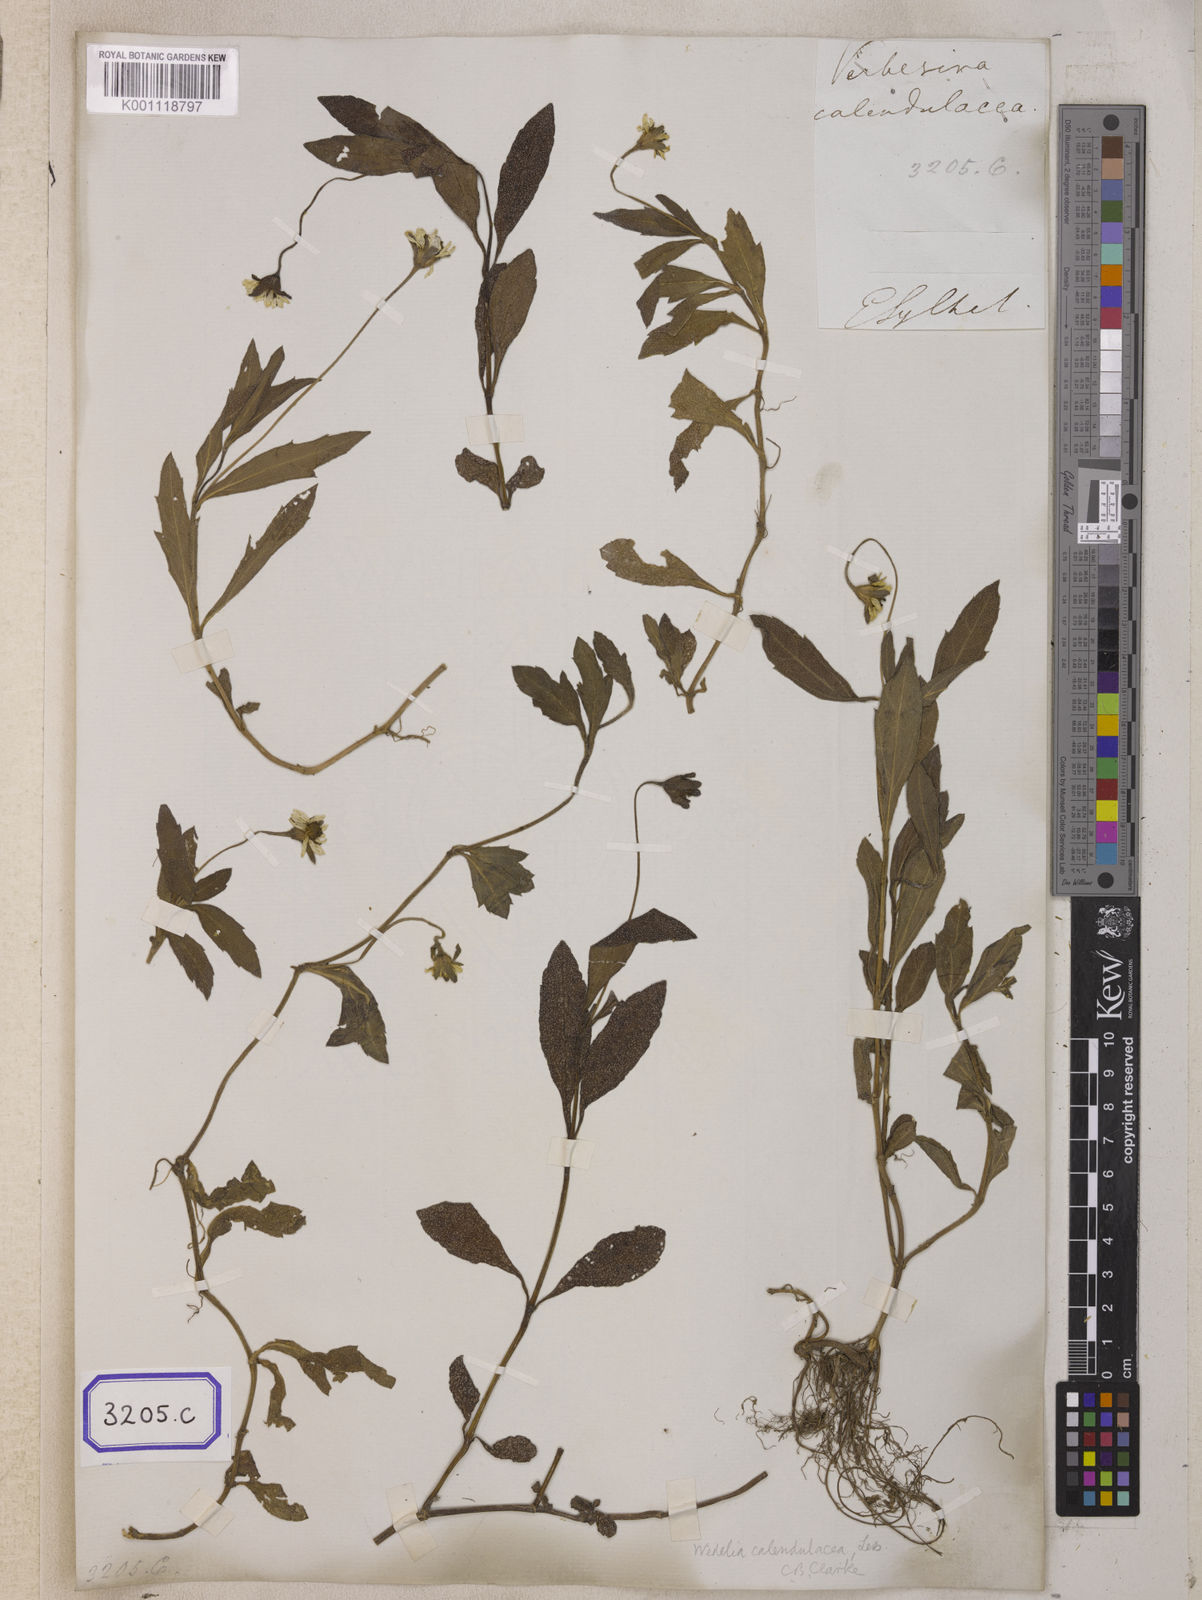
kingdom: Plantae
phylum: Tracheophyta
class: Magnoliopsida
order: Asterales
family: Asteraceae
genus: Sphagneticola
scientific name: Sphagneticola calendulacea
